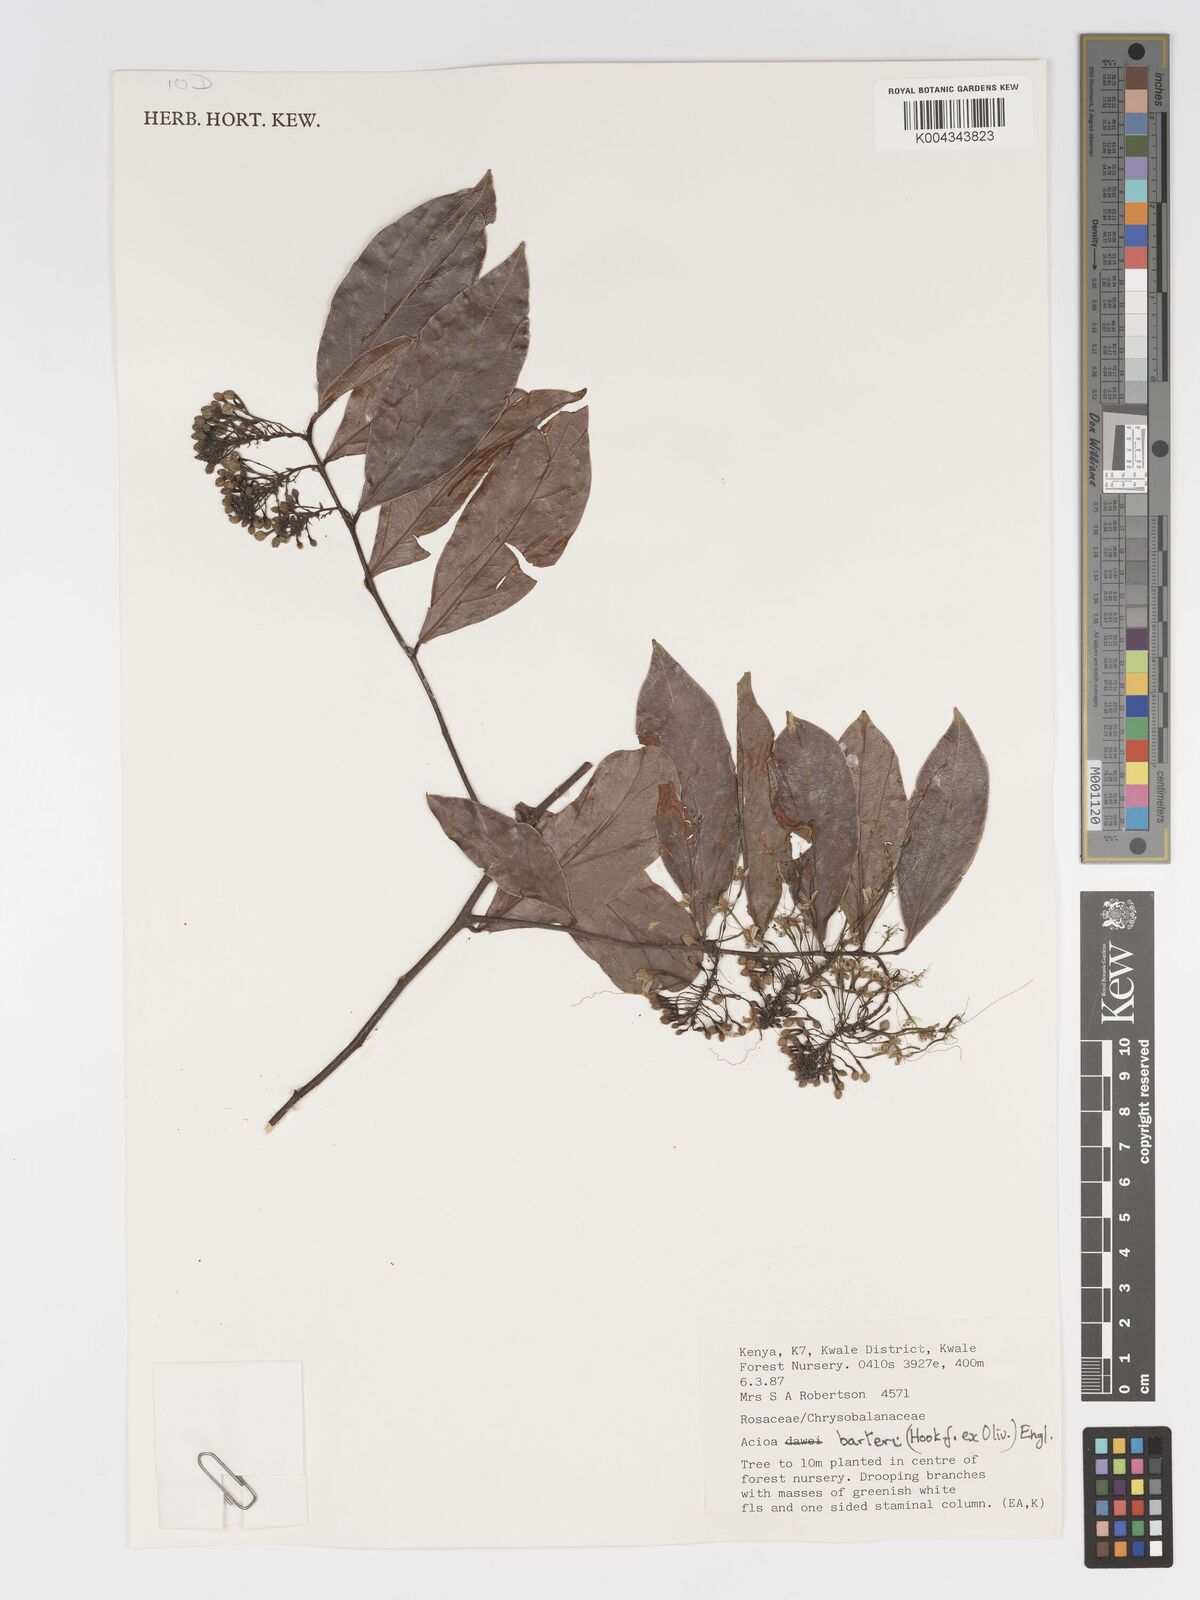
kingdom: Plantae
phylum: Tracheophyta
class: Magnoliopsida
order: Malpighiales
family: Chrysobalanaceae
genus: Dactyladenia
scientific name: Dactyladenia barteri
